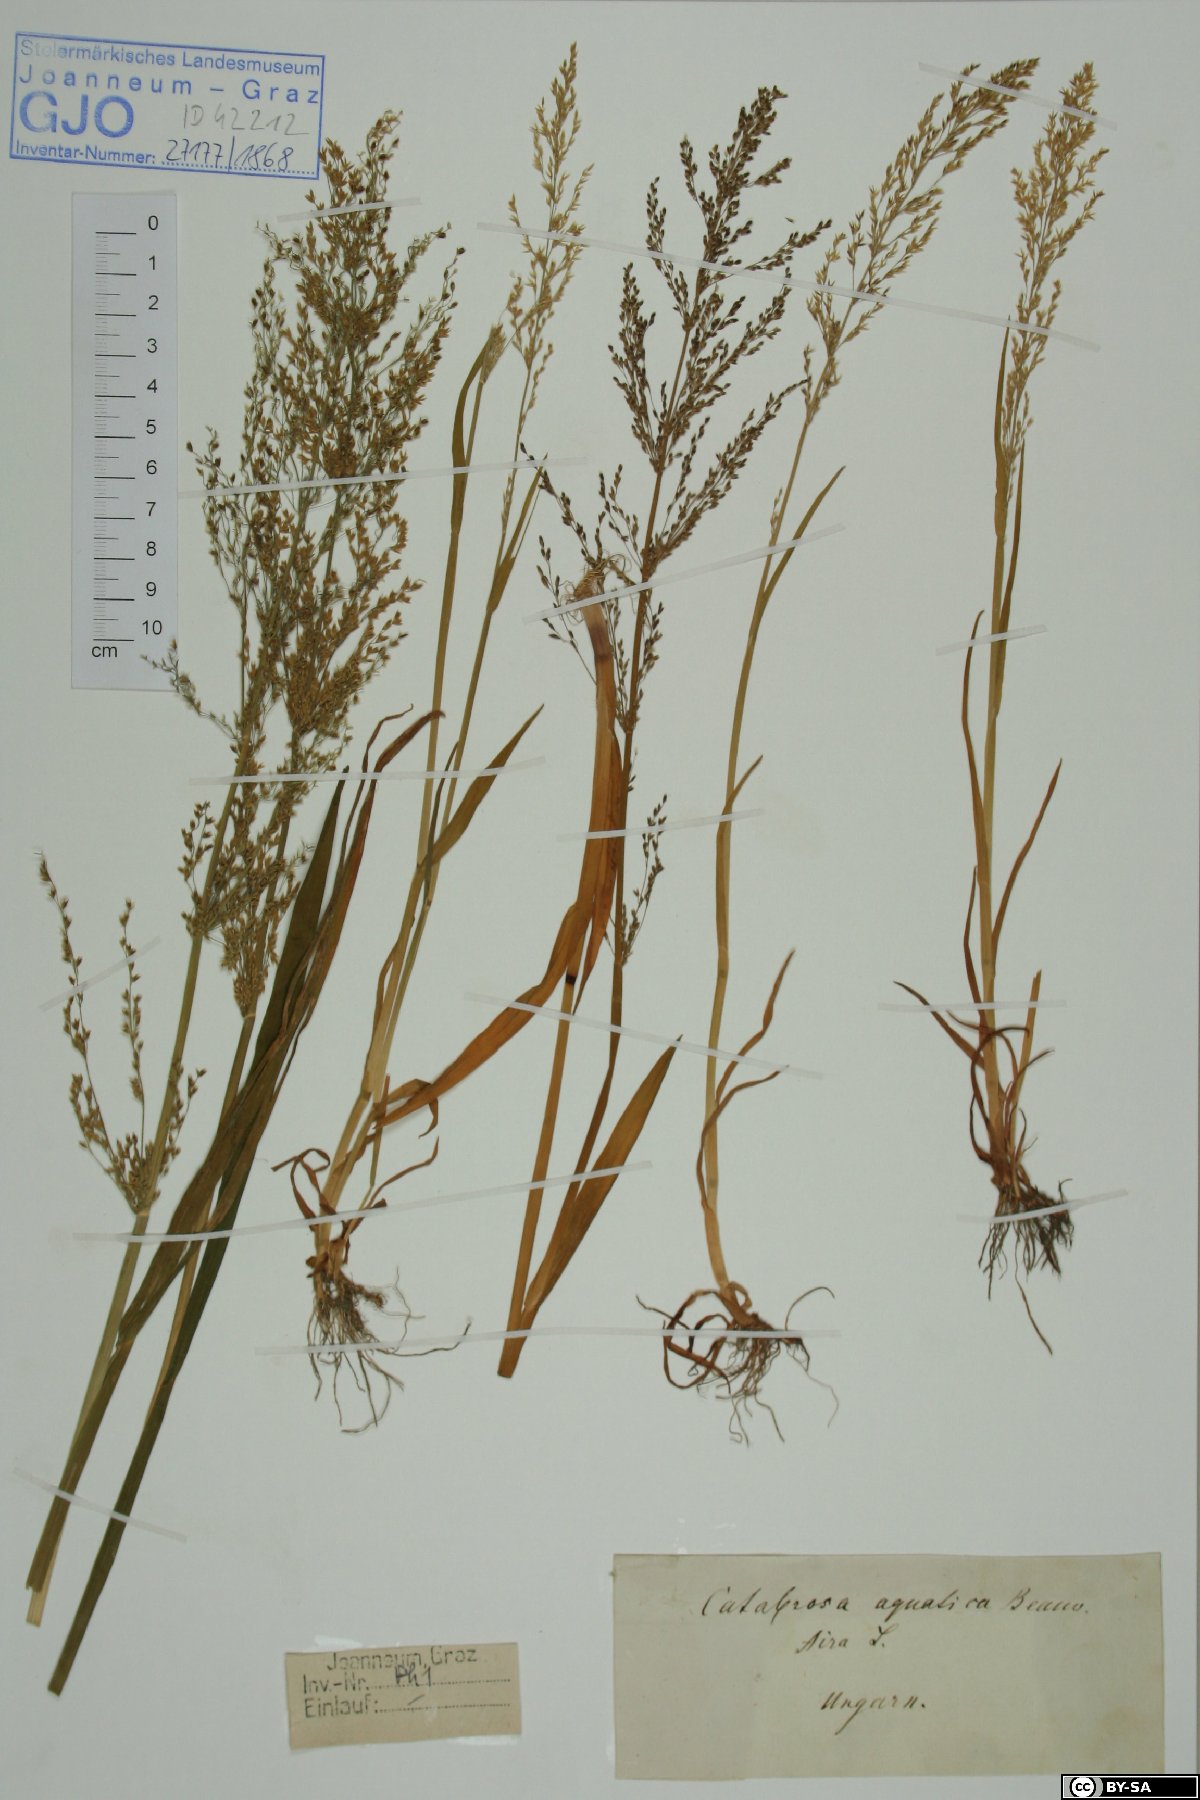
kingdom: Plantae
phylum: Tracheophyta
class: Liliopsida
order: Poales
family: Poaceae
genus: Catabrosa
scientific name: Catabrosa aquatica
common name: Whorl-grass
